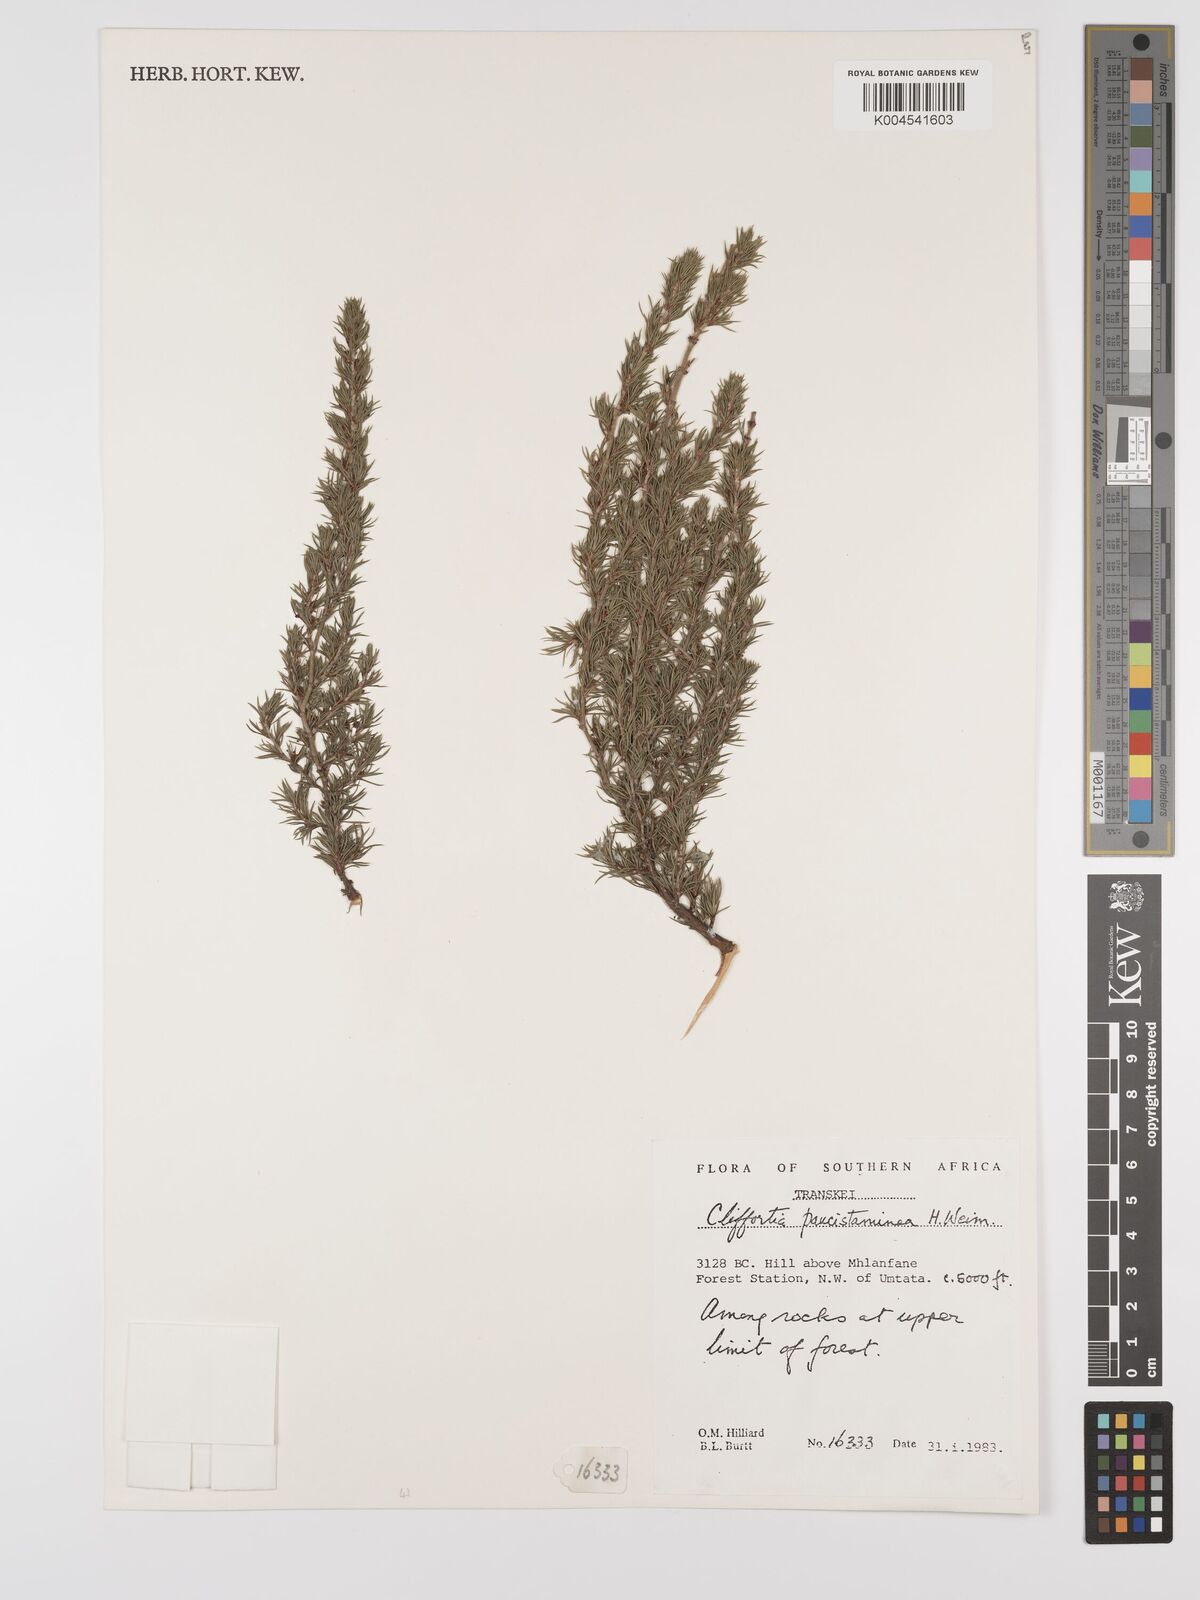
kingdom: Plantae
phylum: Tracheophyta
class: Magnoliopsida
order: Rosales
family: Rosaceae
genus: Cliffortia
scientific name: Cliffortia paucistaminea
